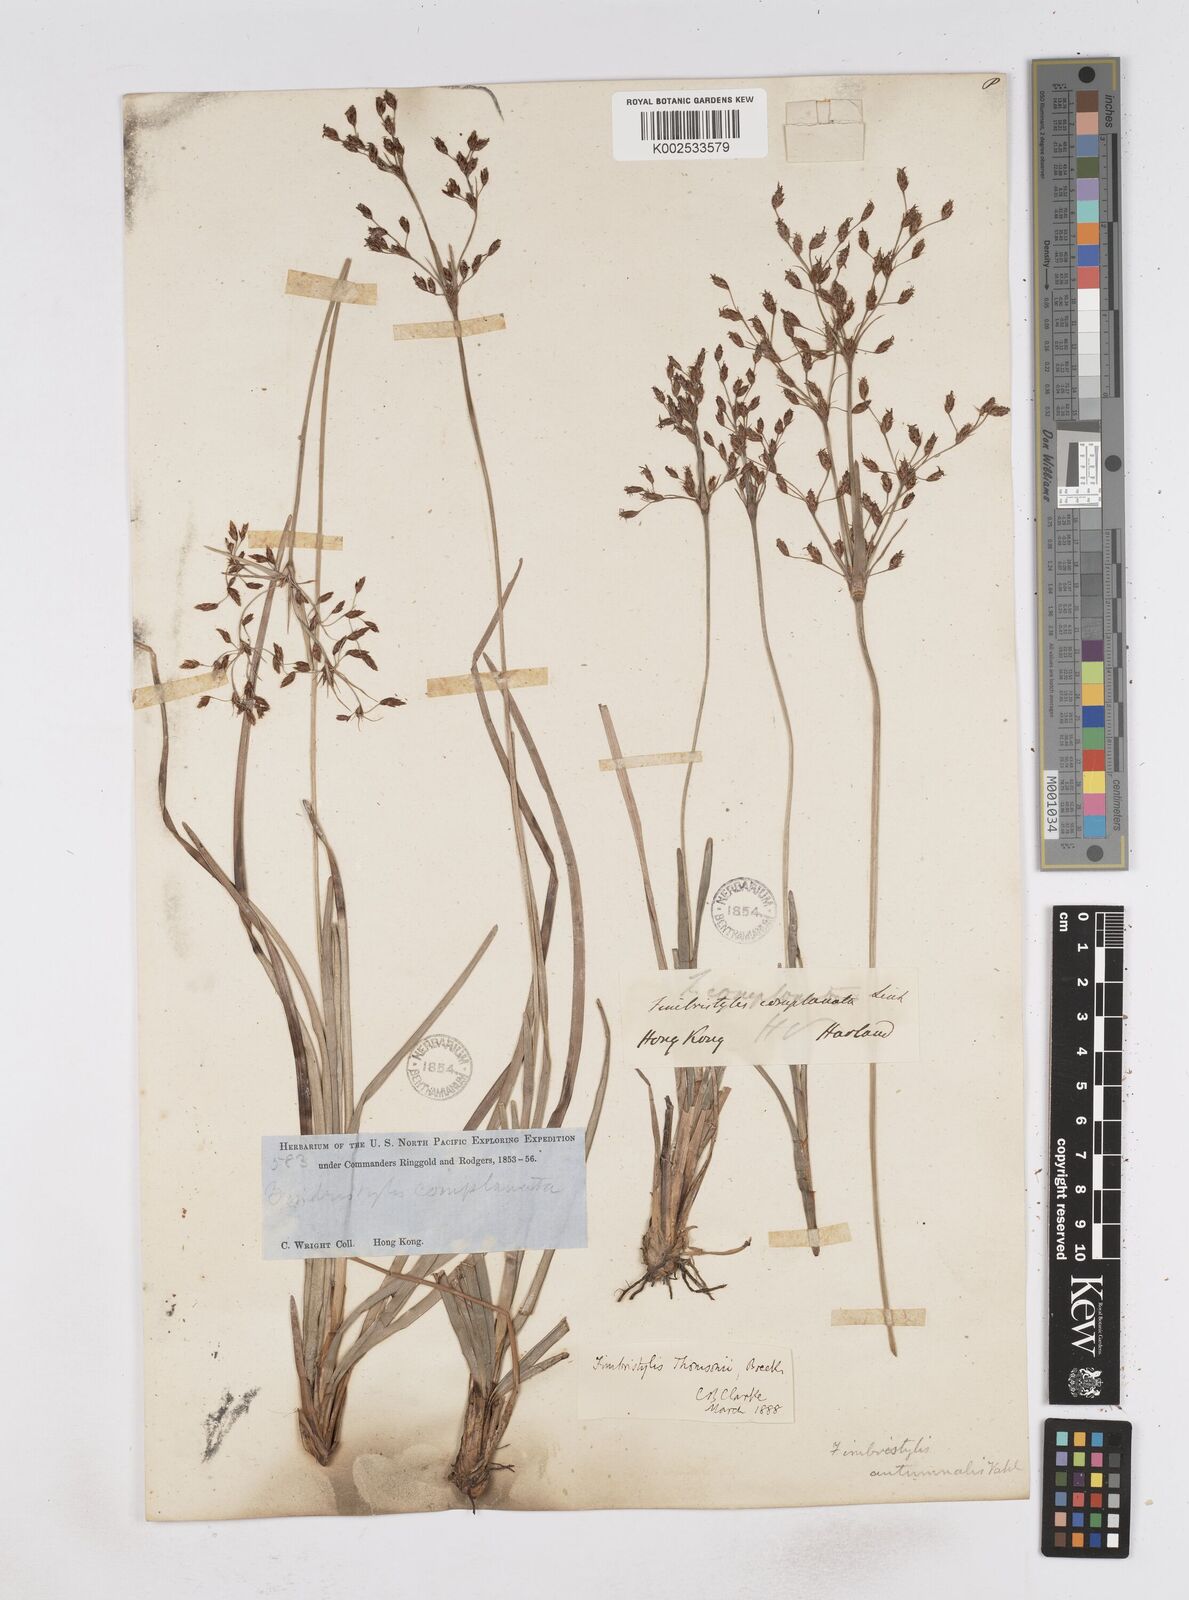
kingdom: Plantae
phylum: Tracheophyta
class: Liliopsida
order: Poales
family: Cyperaceae
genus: Fimbristylis
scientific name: Fimbristylis thomsonii
